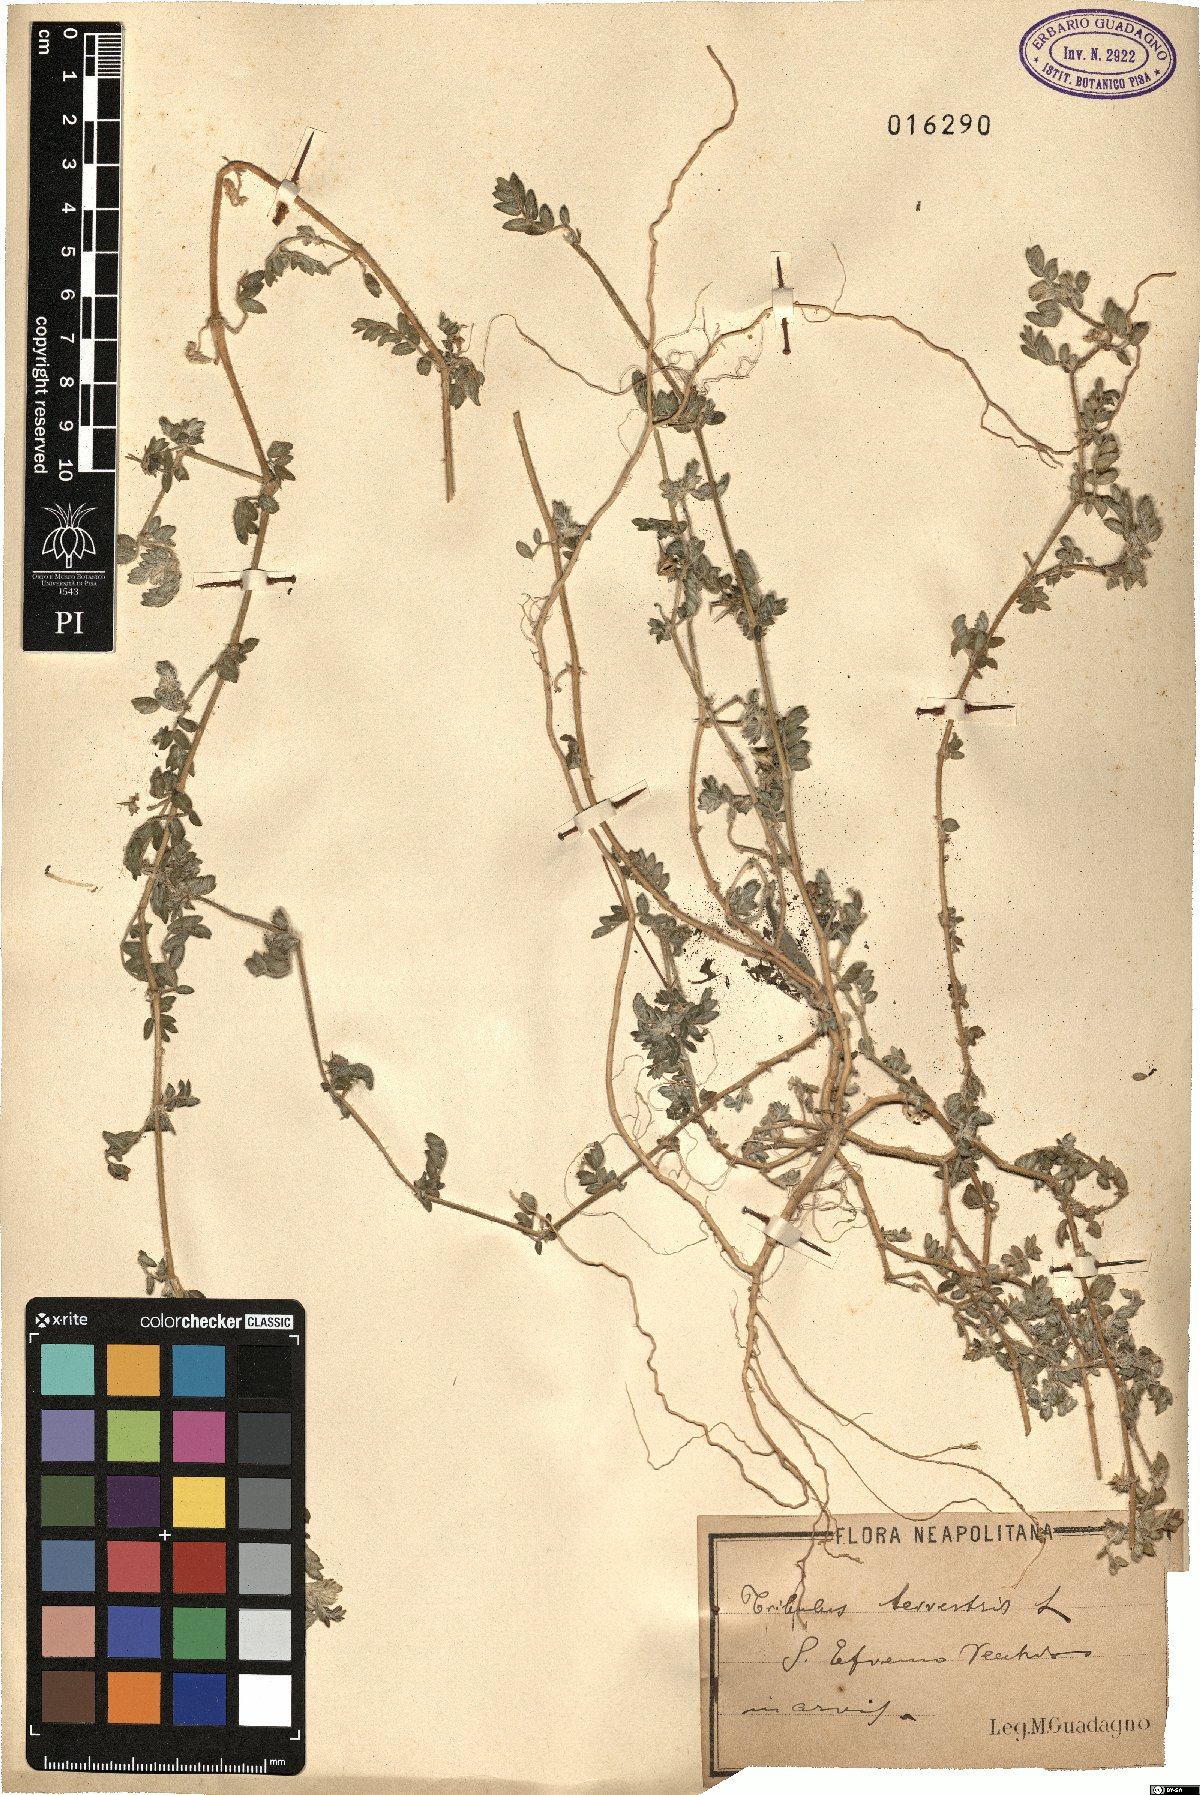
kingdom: Plantae
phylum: Tracheophyta
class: Magnoliopsida
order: Zygophyllales
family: Zygophyllaceae
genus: Tribulus
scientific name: Tribulus
